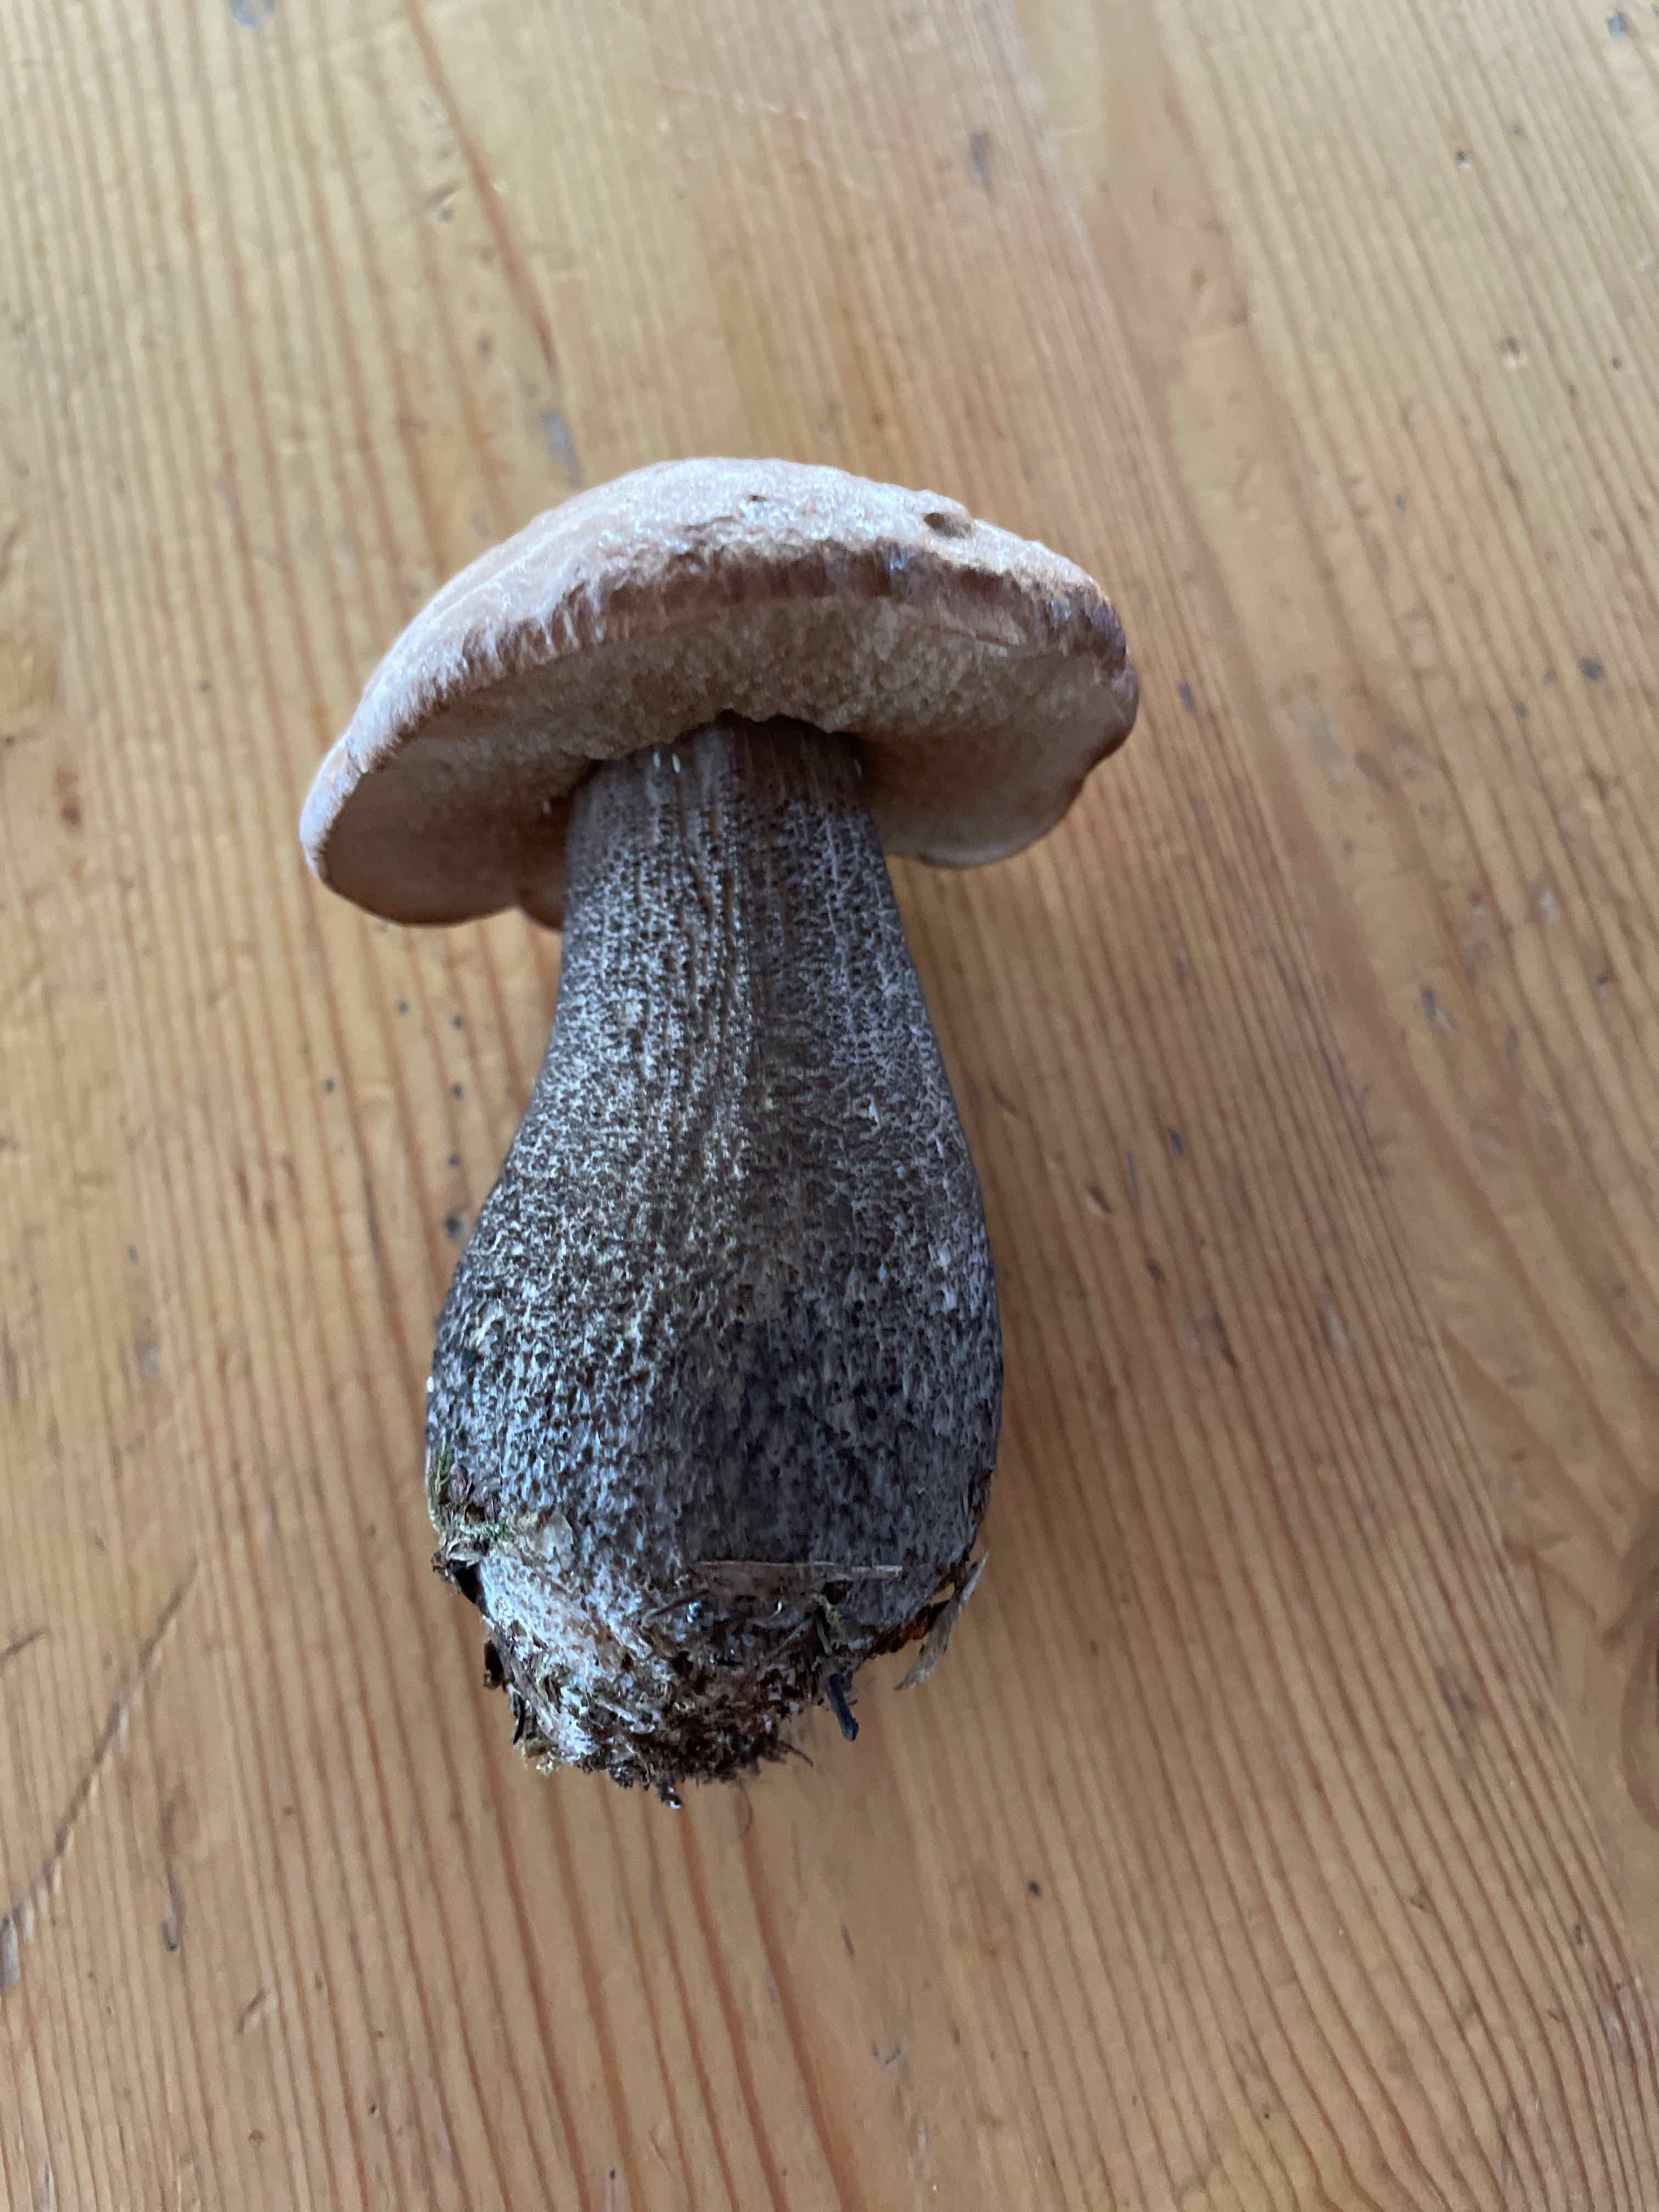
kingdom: Fungi
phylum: Basidiomycota
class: Agaricomycetes
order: Boletales
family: Boletaceae
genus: Leccinum
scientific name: Leccinum melaneum
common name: mørk skælrørhat
